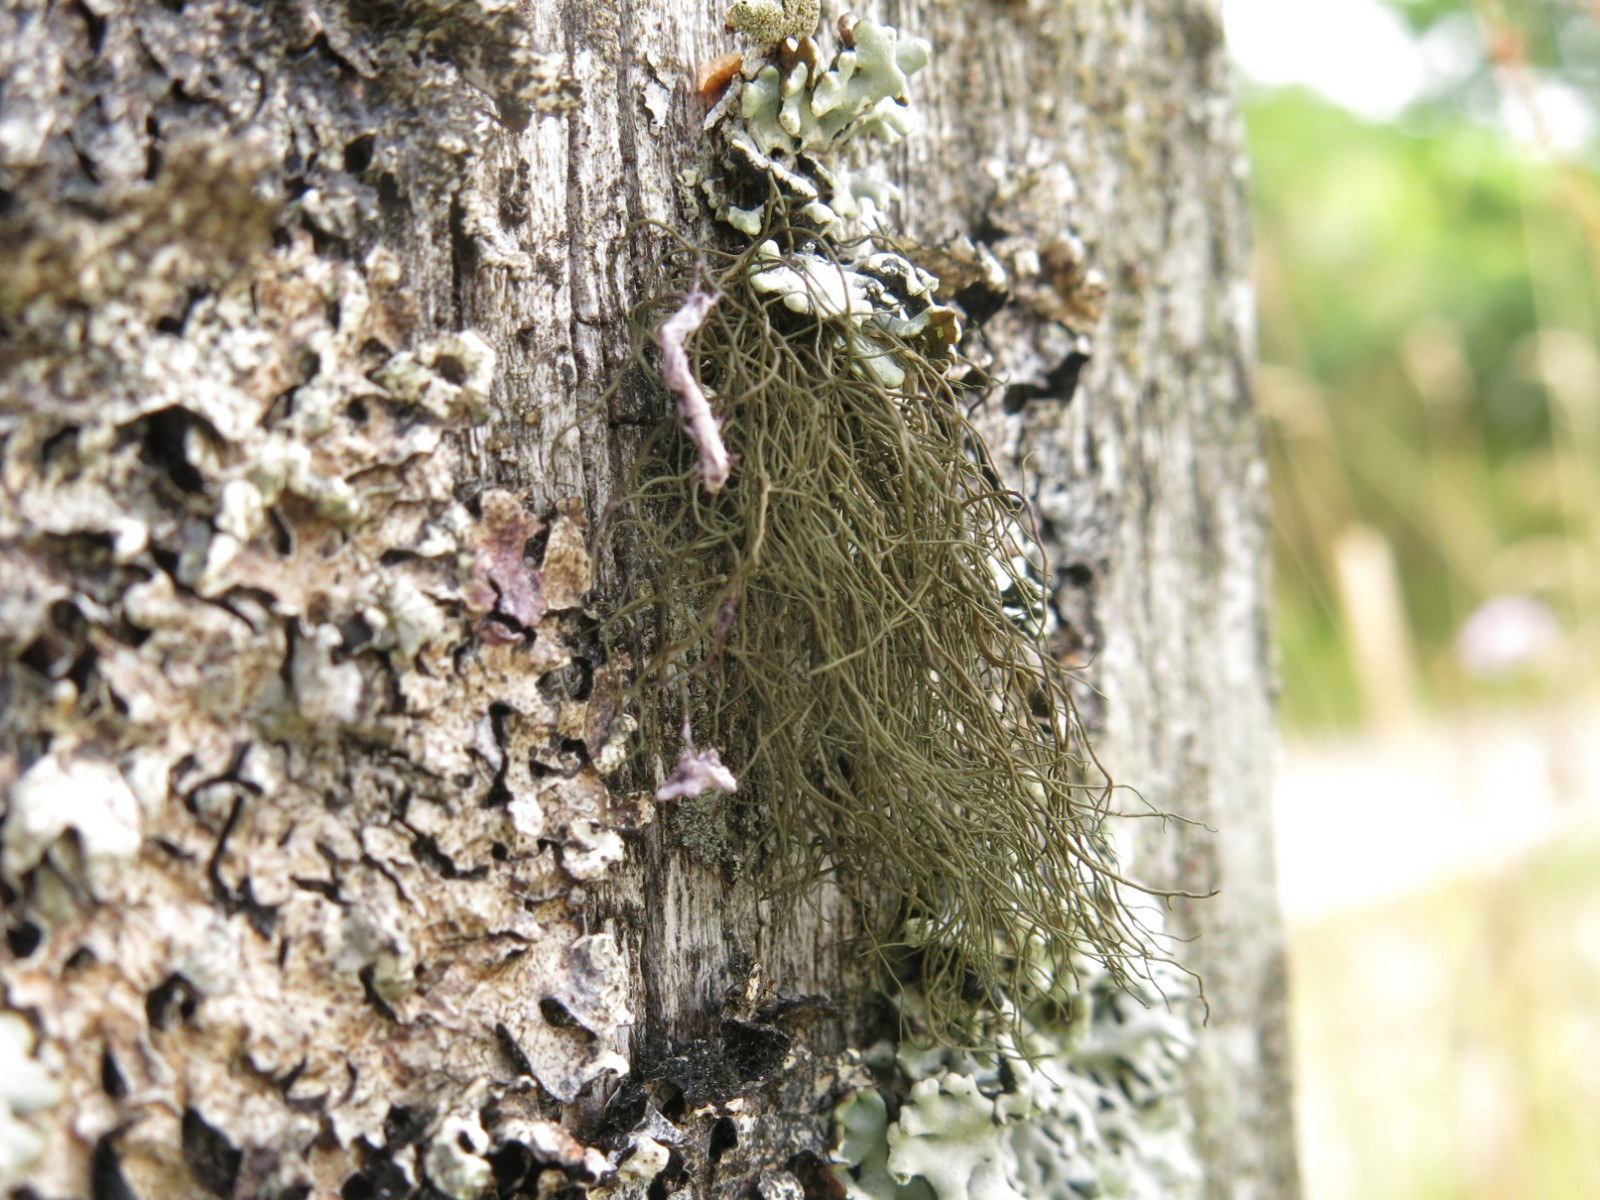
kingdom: Fungi
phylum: Ascomycota
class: Lecanoromycetes
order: Lecanorales
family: Parmeliaceae
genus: Bryoria
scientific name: Bryoria fuscescens
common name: almindelig mankelav
